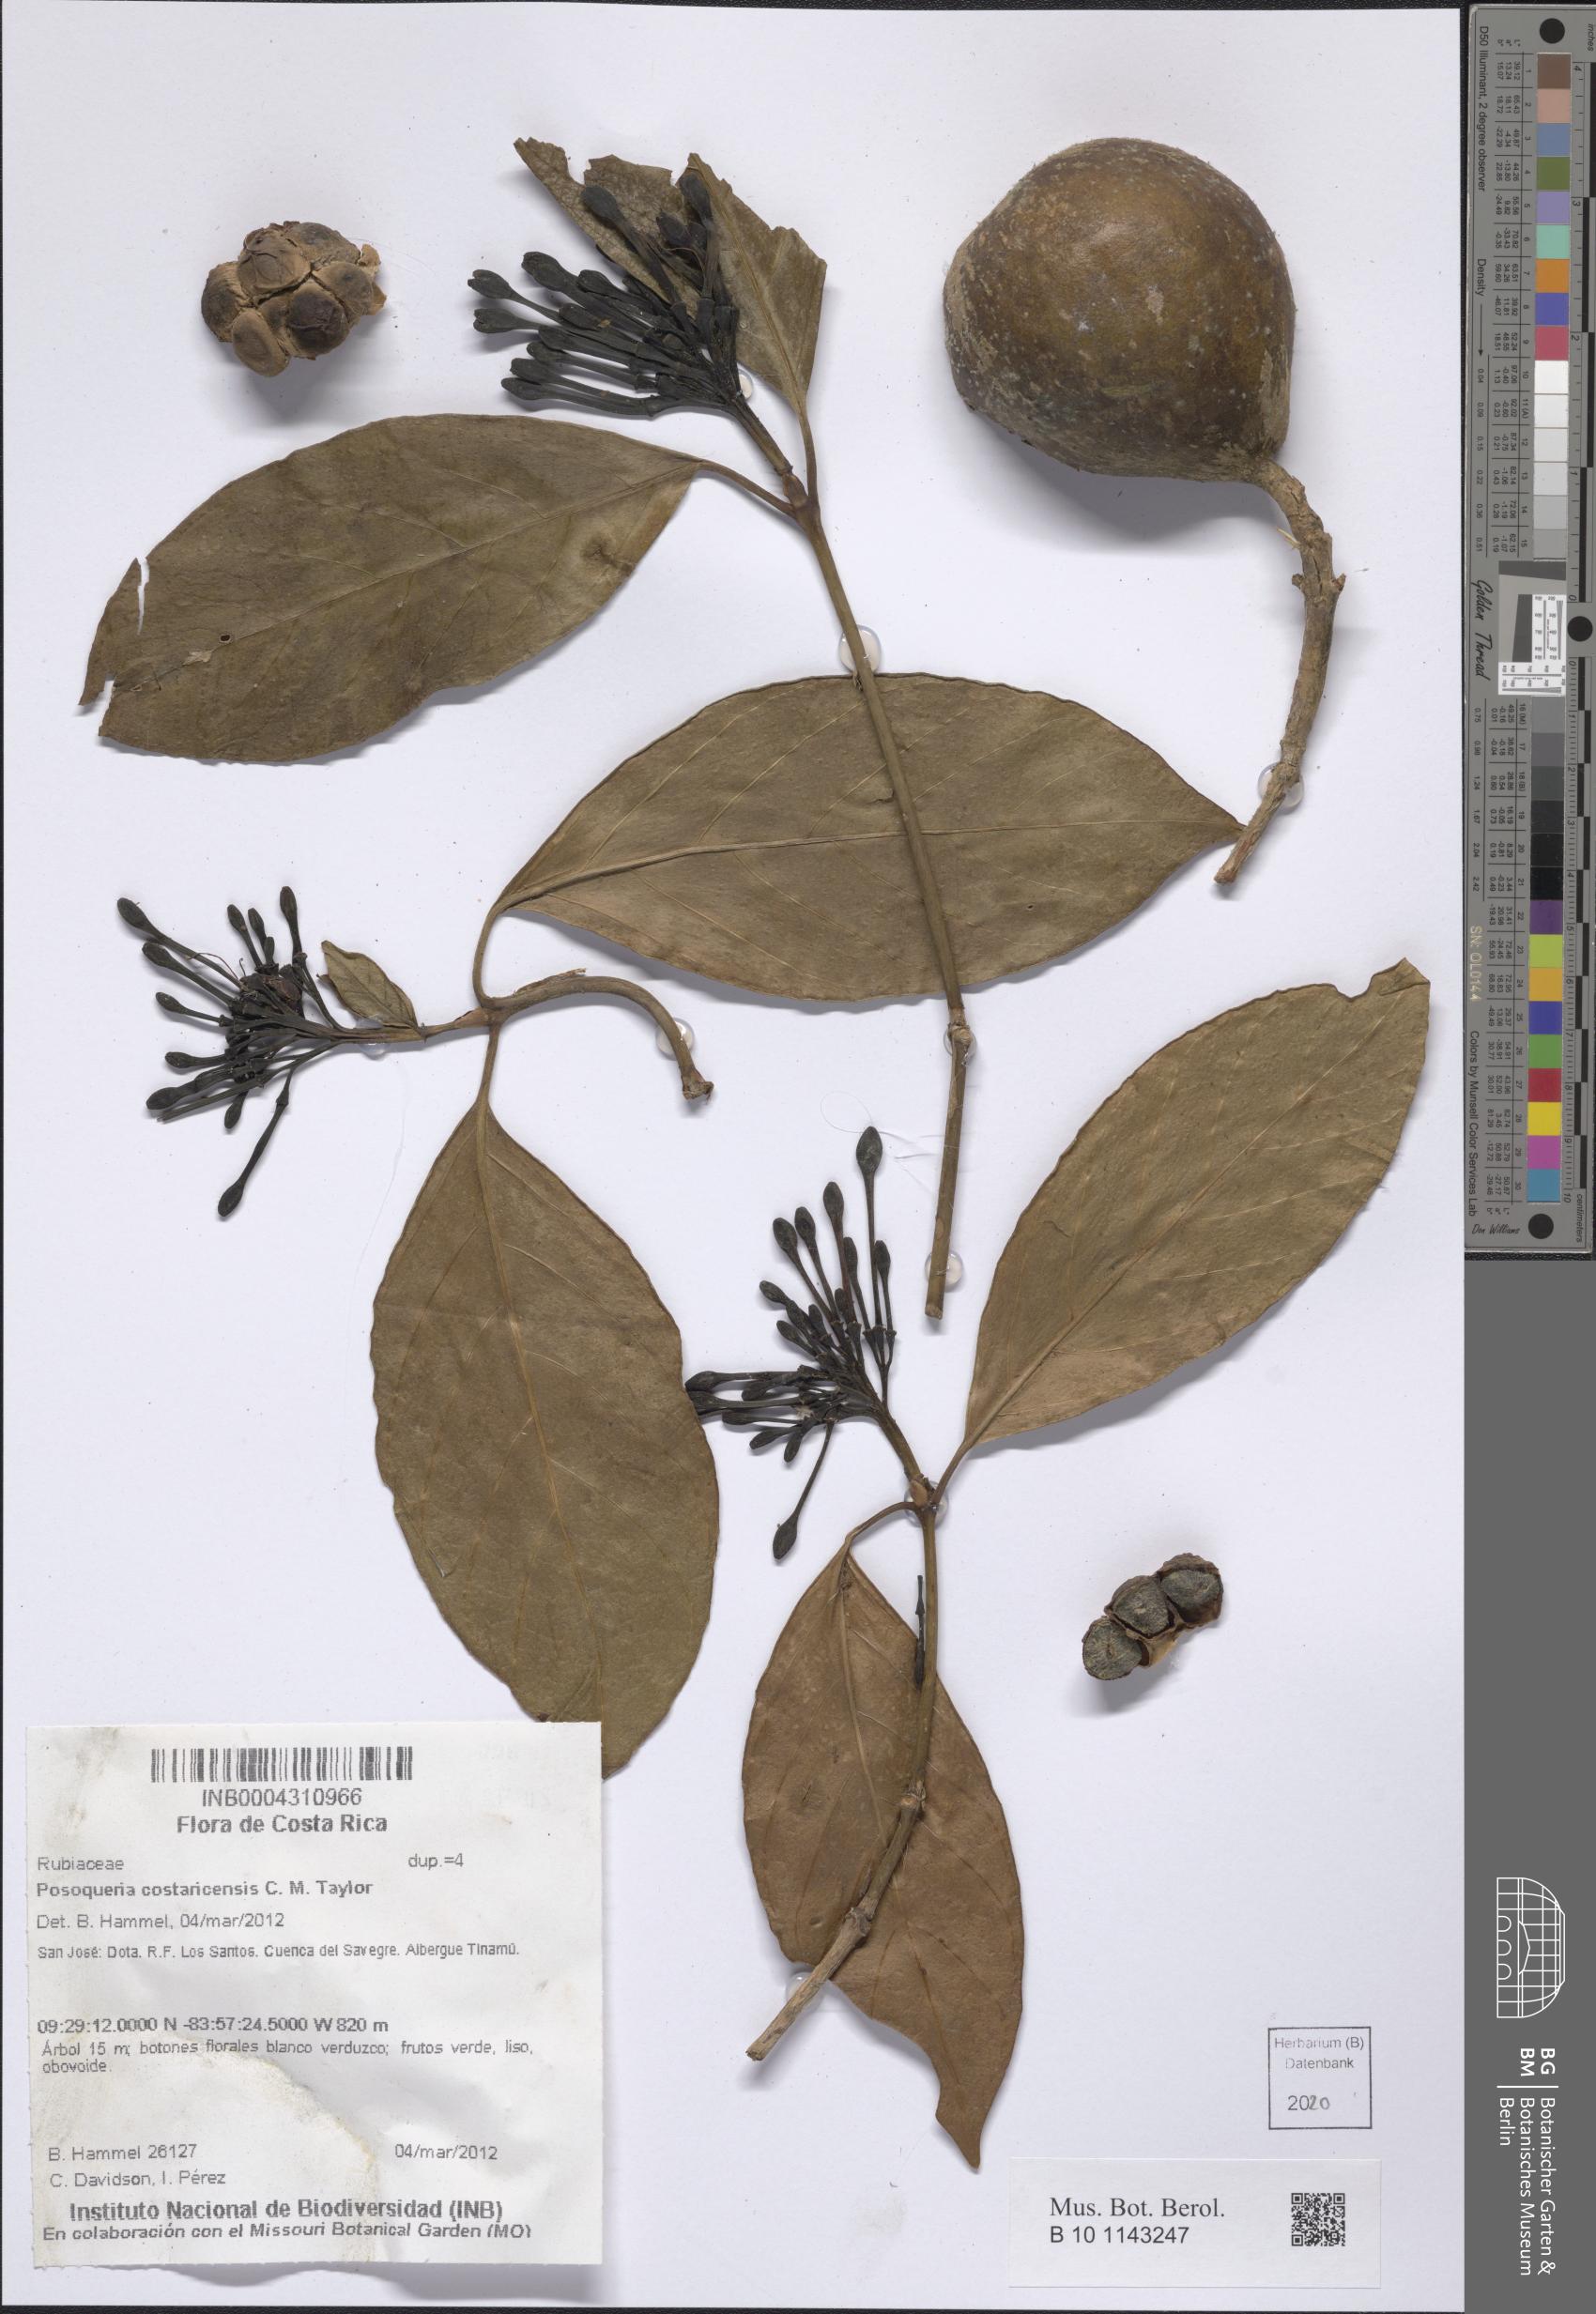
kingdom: Plantae
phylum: Tracheophyta
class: Magnoliopsida
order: Gentianales
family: Rubiaceae
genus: Posoqueria
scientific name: Posoqueria costaricensis
